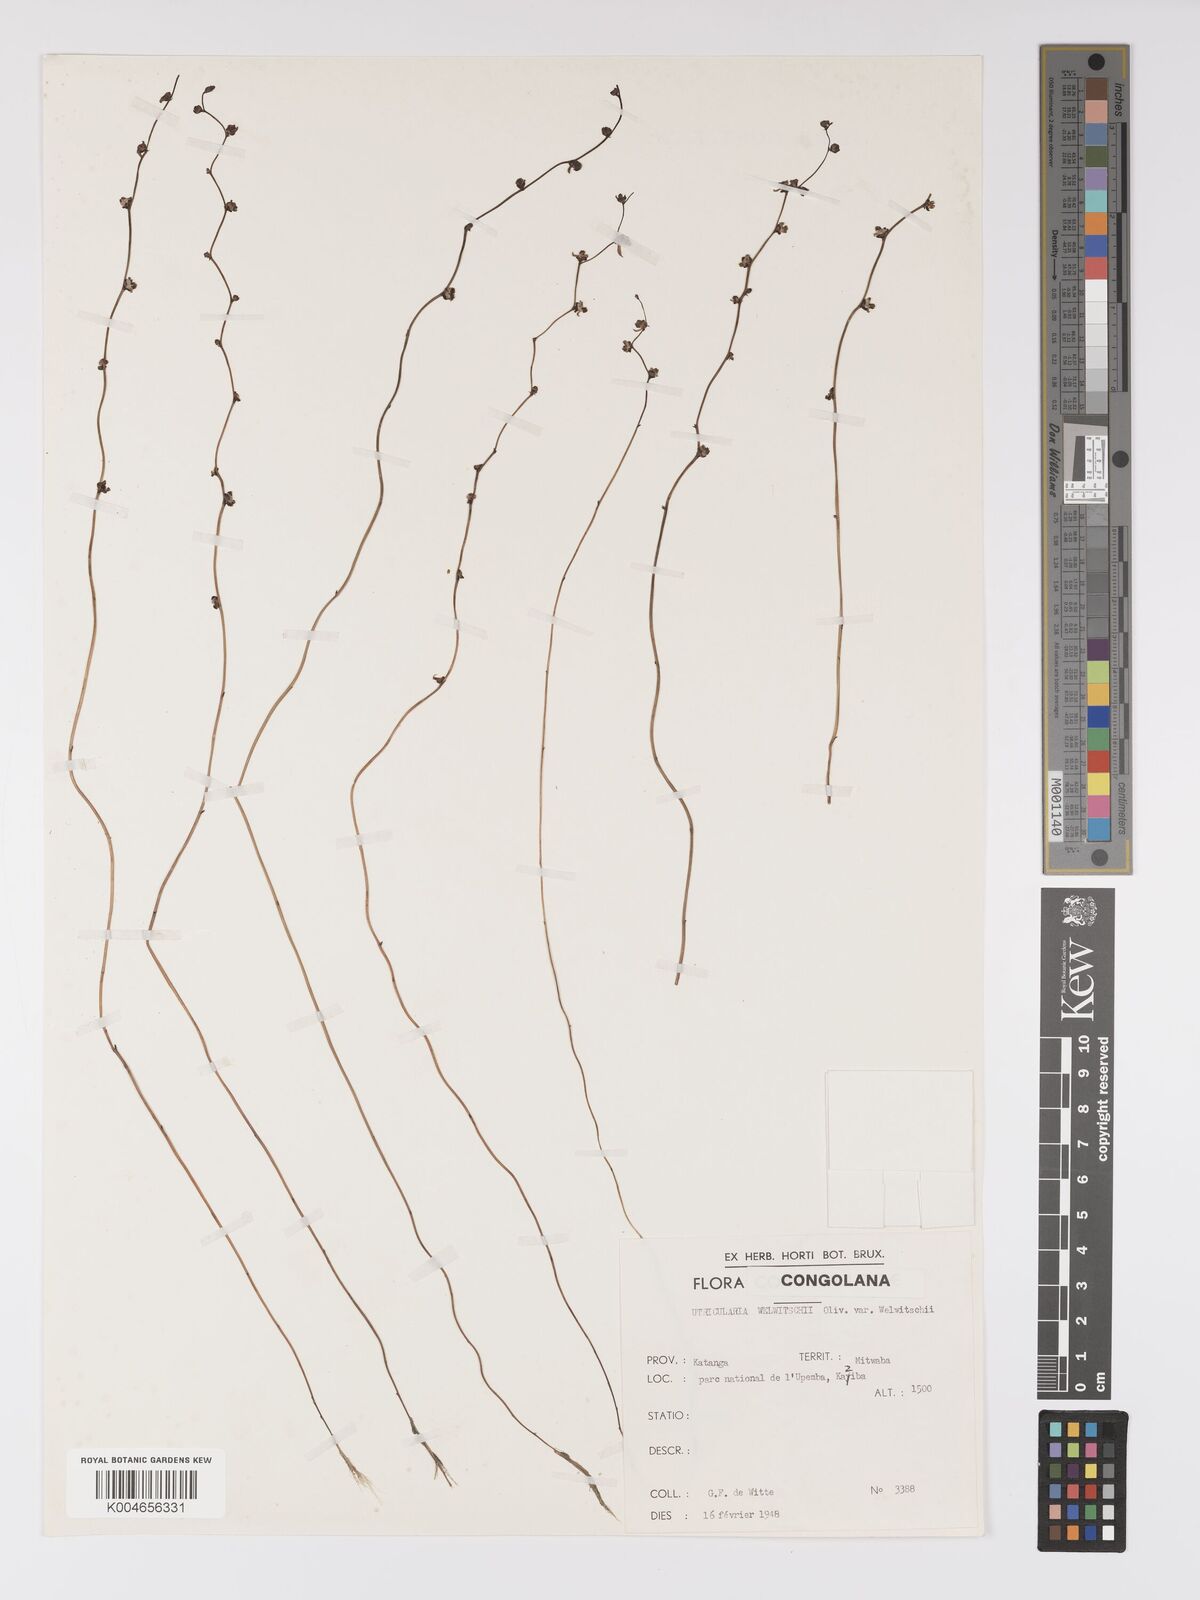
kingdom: Plantae
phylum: Tracheophyta
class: Magnoliopsida
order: Lamiales
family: Lentibulariaceae
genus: Utricularia
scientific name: Utricularia welwitschii
